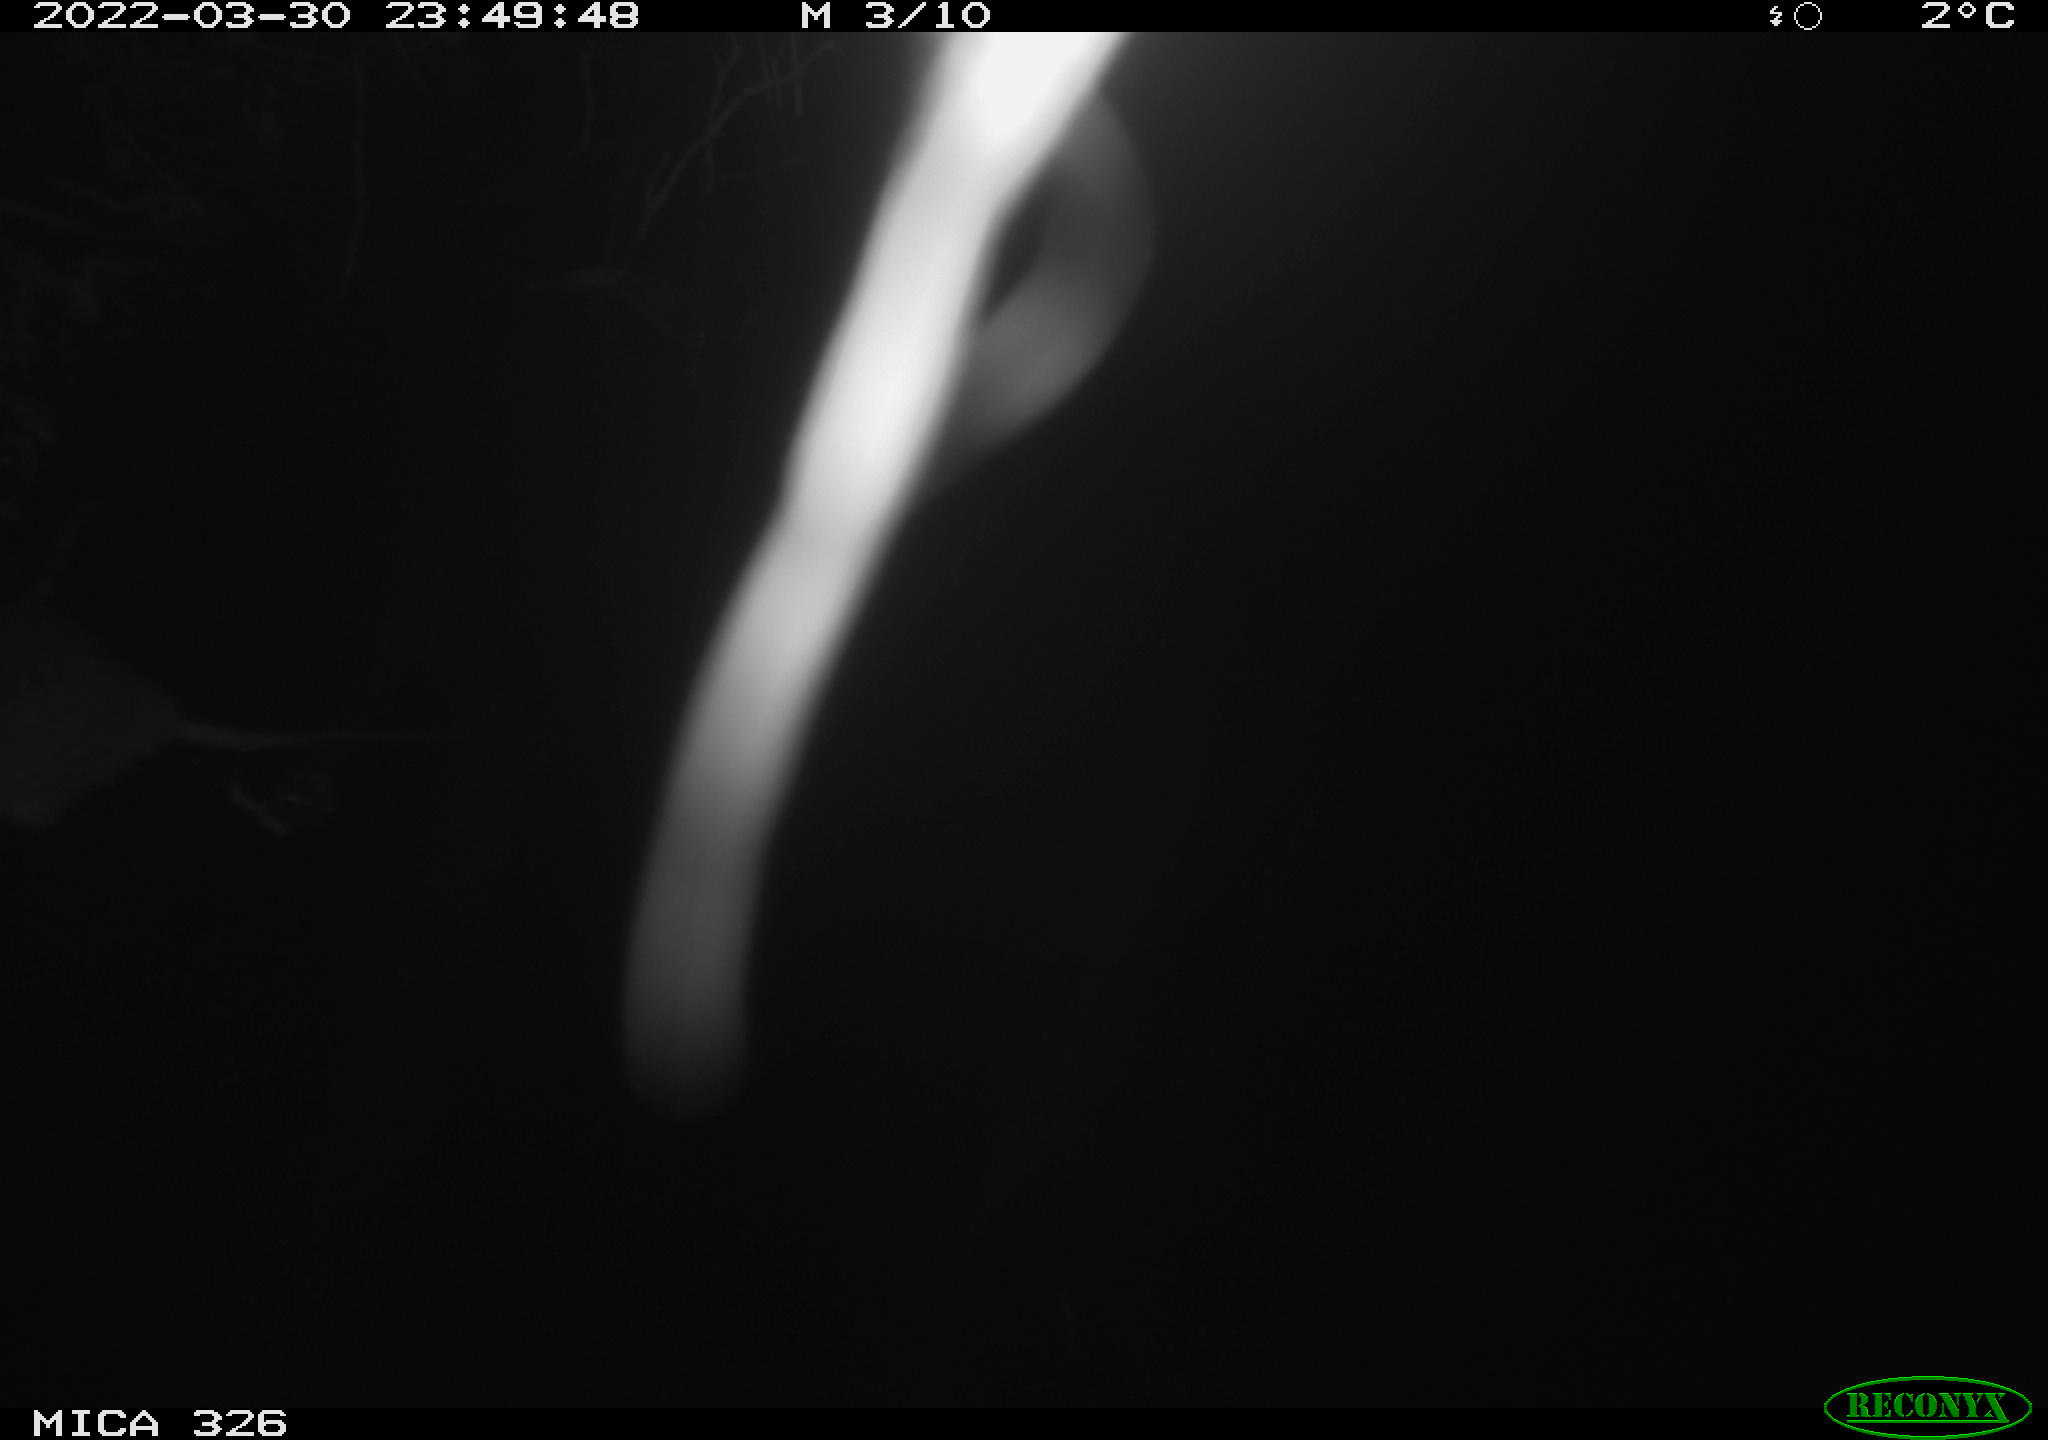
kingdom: Animalia
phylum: Chordata
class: Mammalia
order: Rodentia
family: Muridae
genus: Rattus
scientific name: Rattus norvegicus
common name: Brown rat
